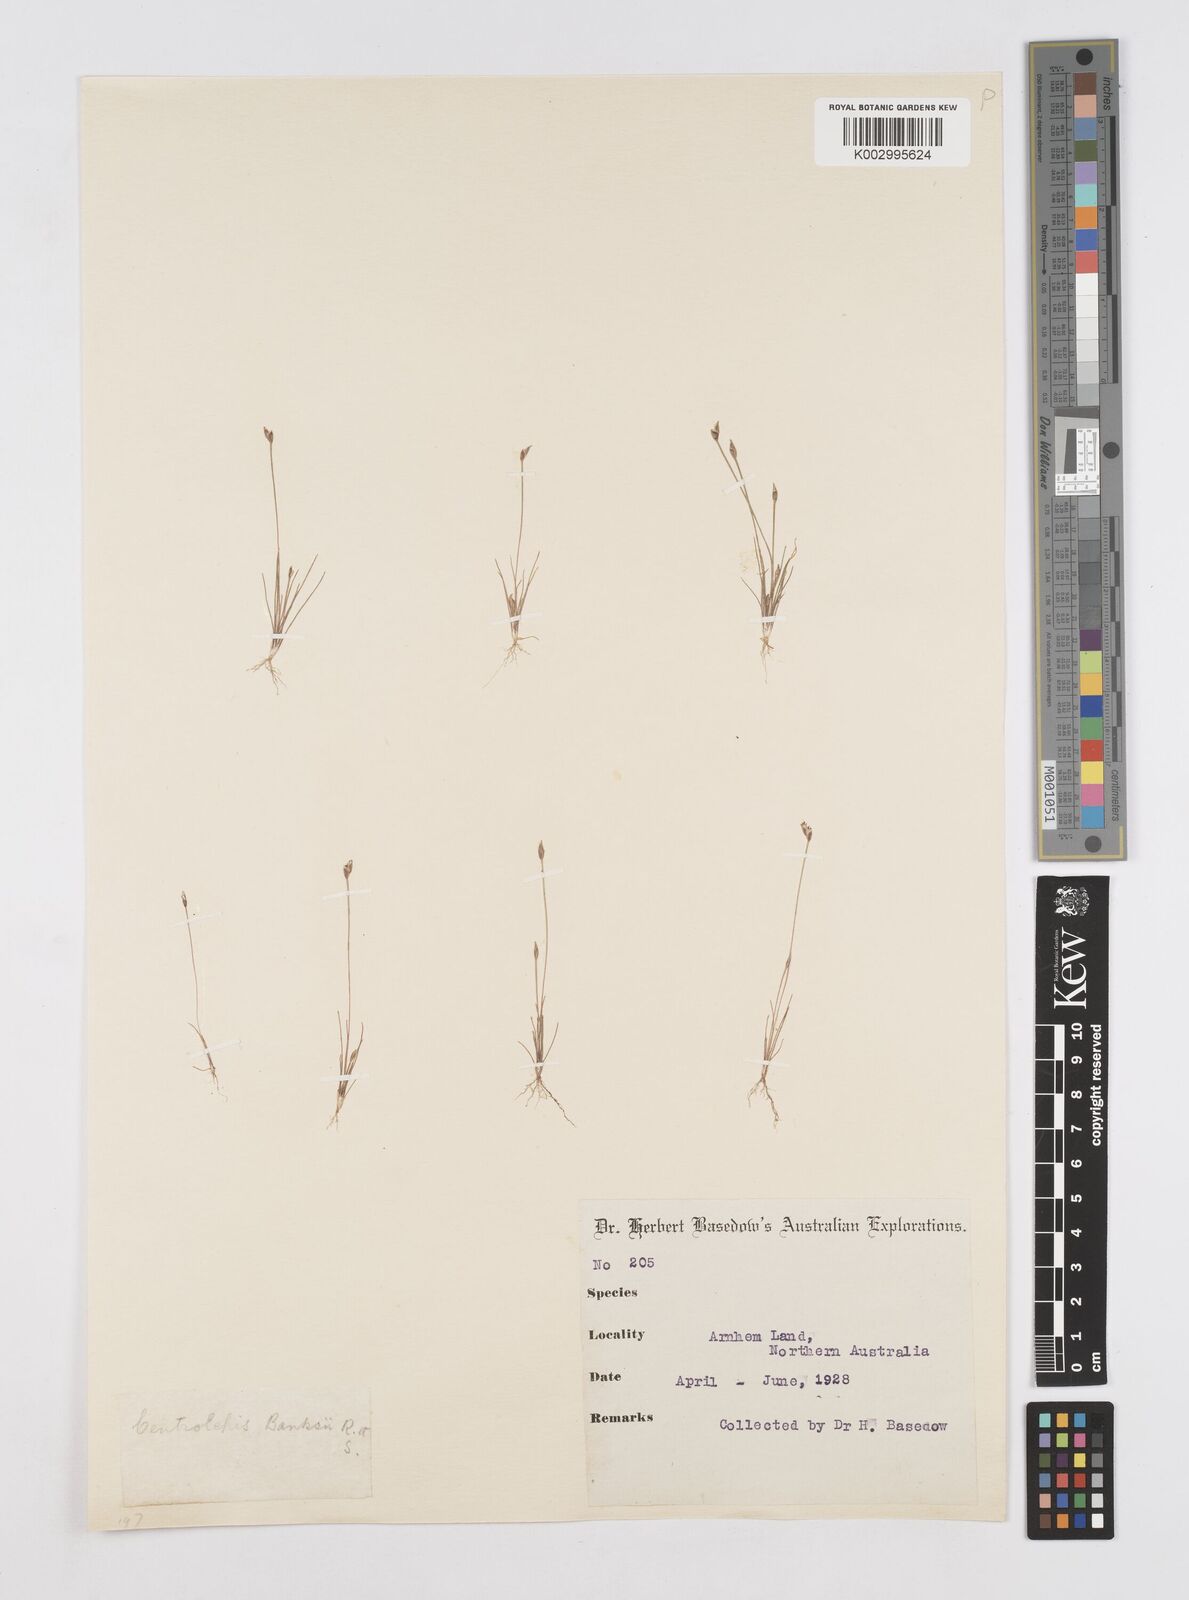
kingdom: Plantae
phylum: Tracheophyta
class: Liliopsida
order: Poales
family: Restionaceae
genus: Centrolepis
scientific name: Centrolepis banksii
